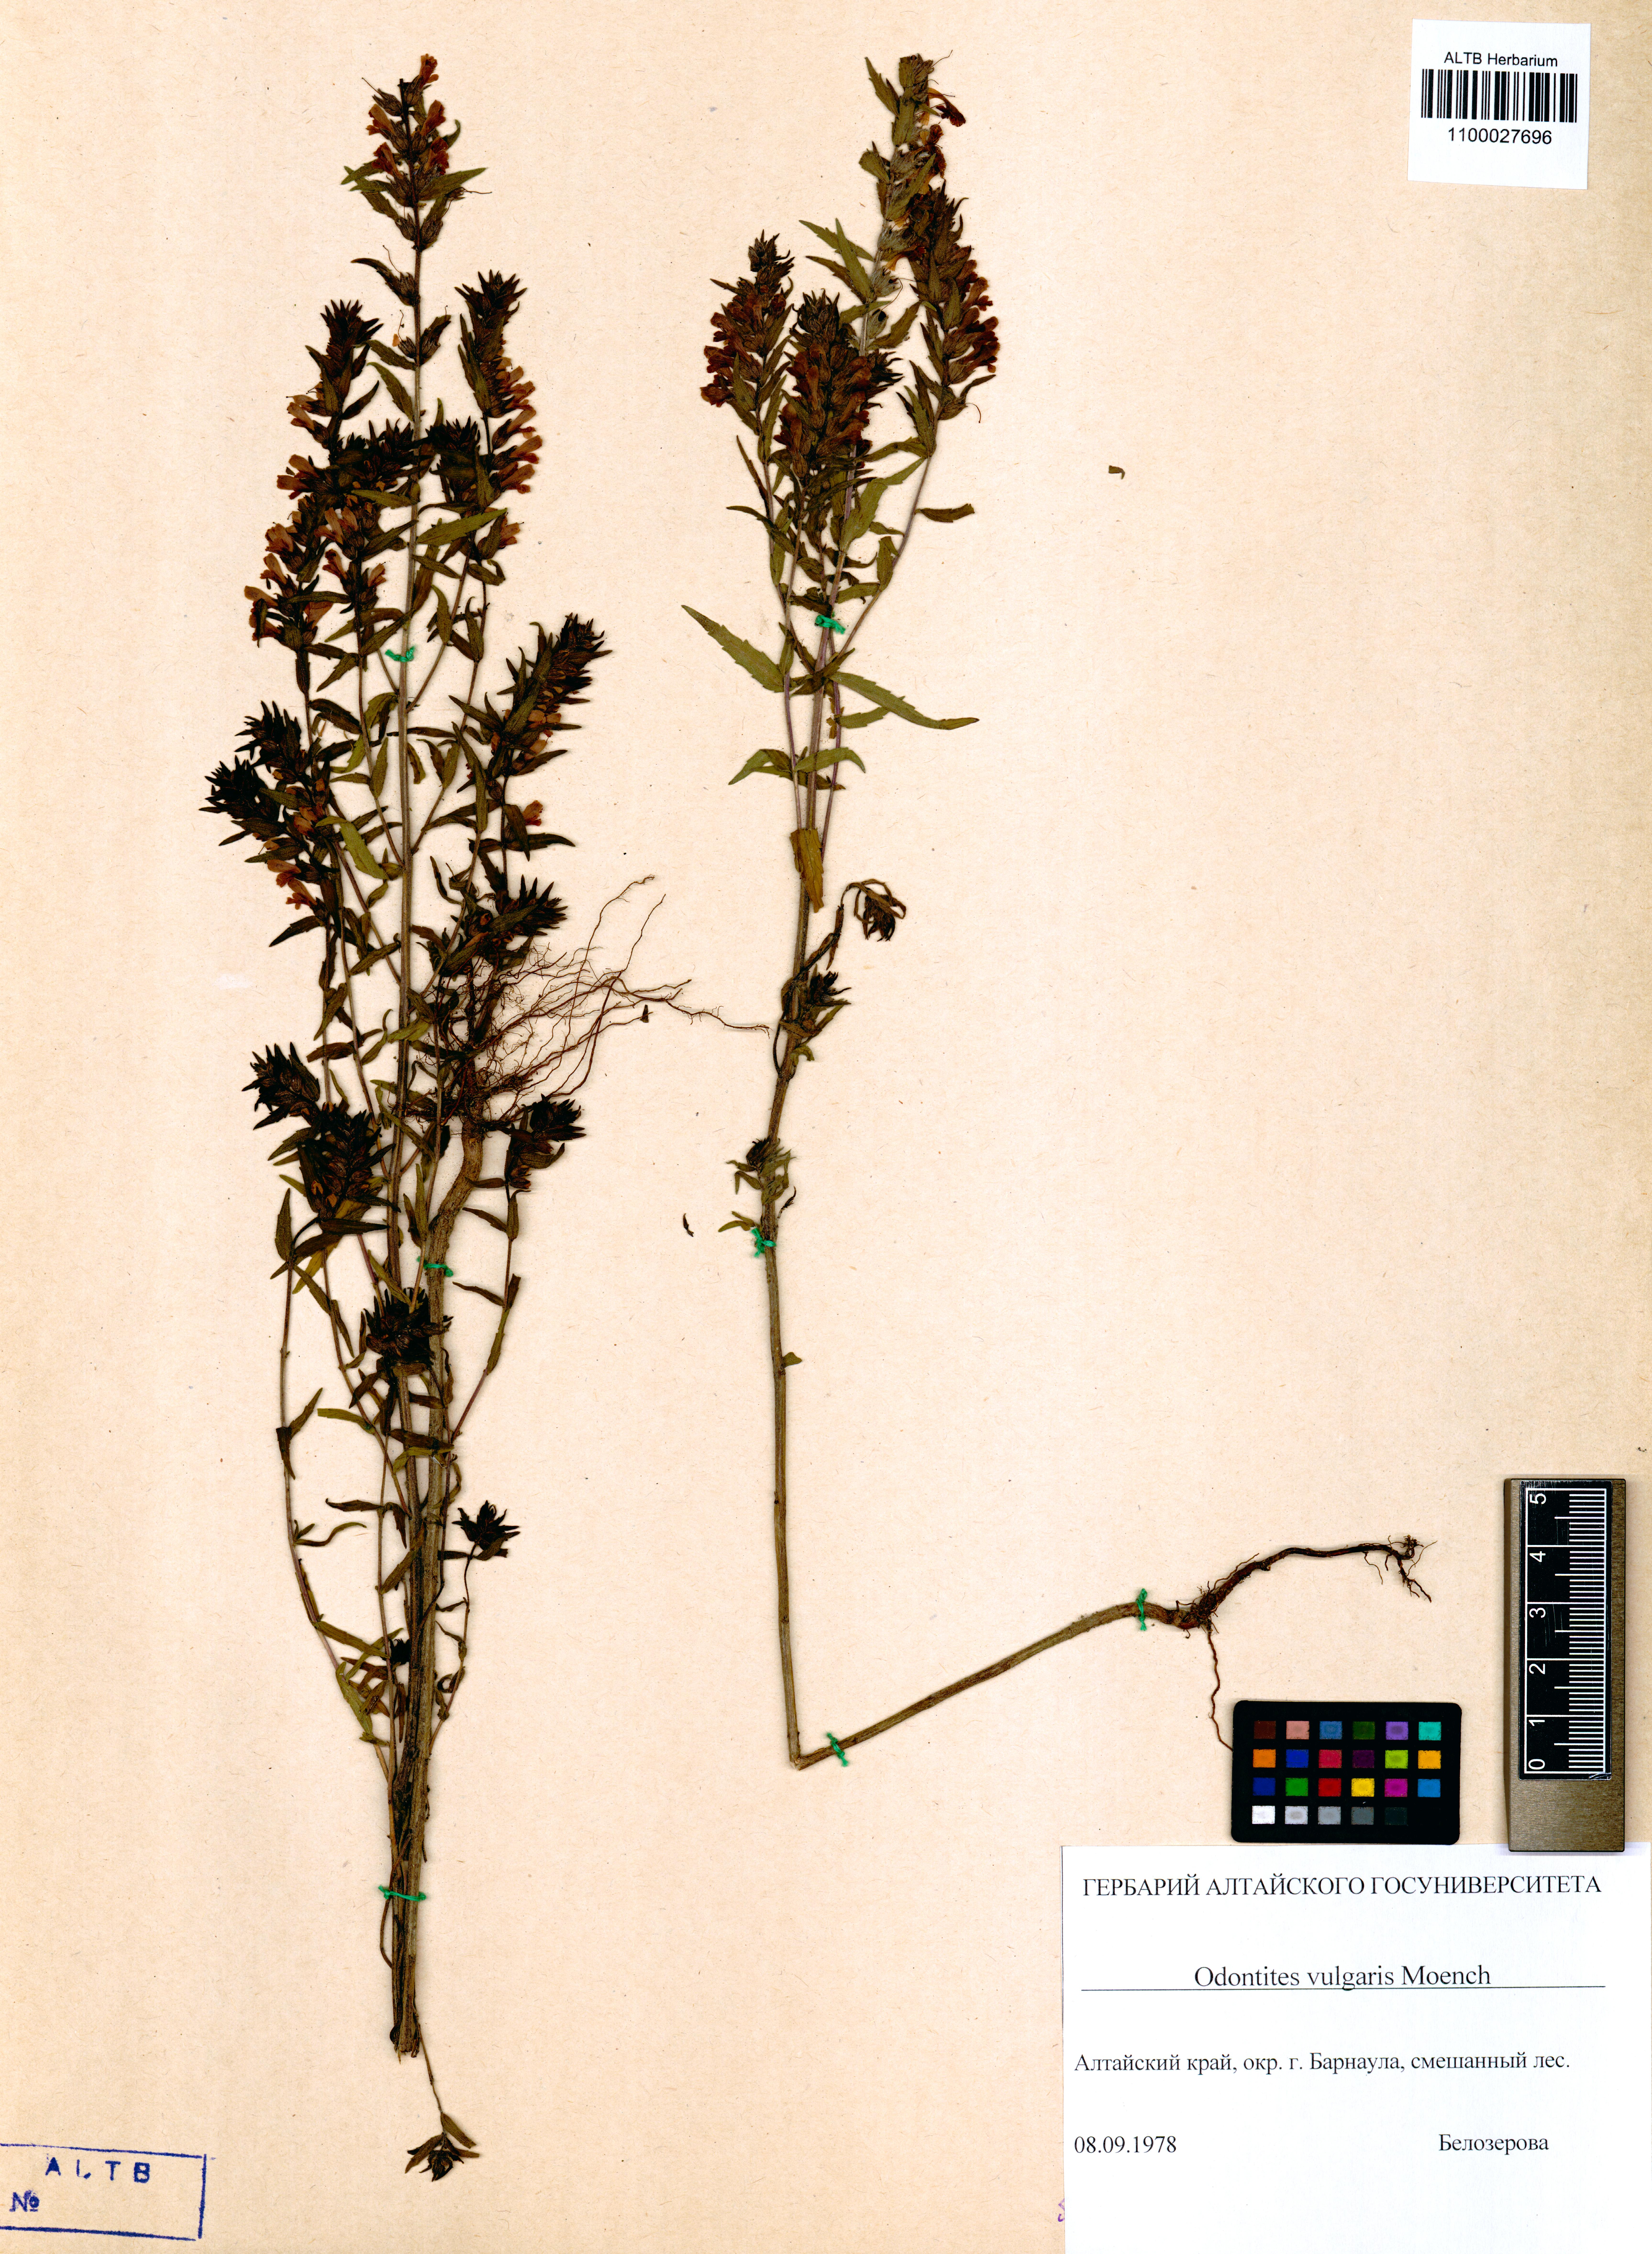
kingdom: Plantae
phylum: Tracheophyta
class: Magnoliopsida
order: Lamiales
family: Orobanchaceae
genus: Odontites
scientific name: Odontites vulgaris
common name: Broomrape
